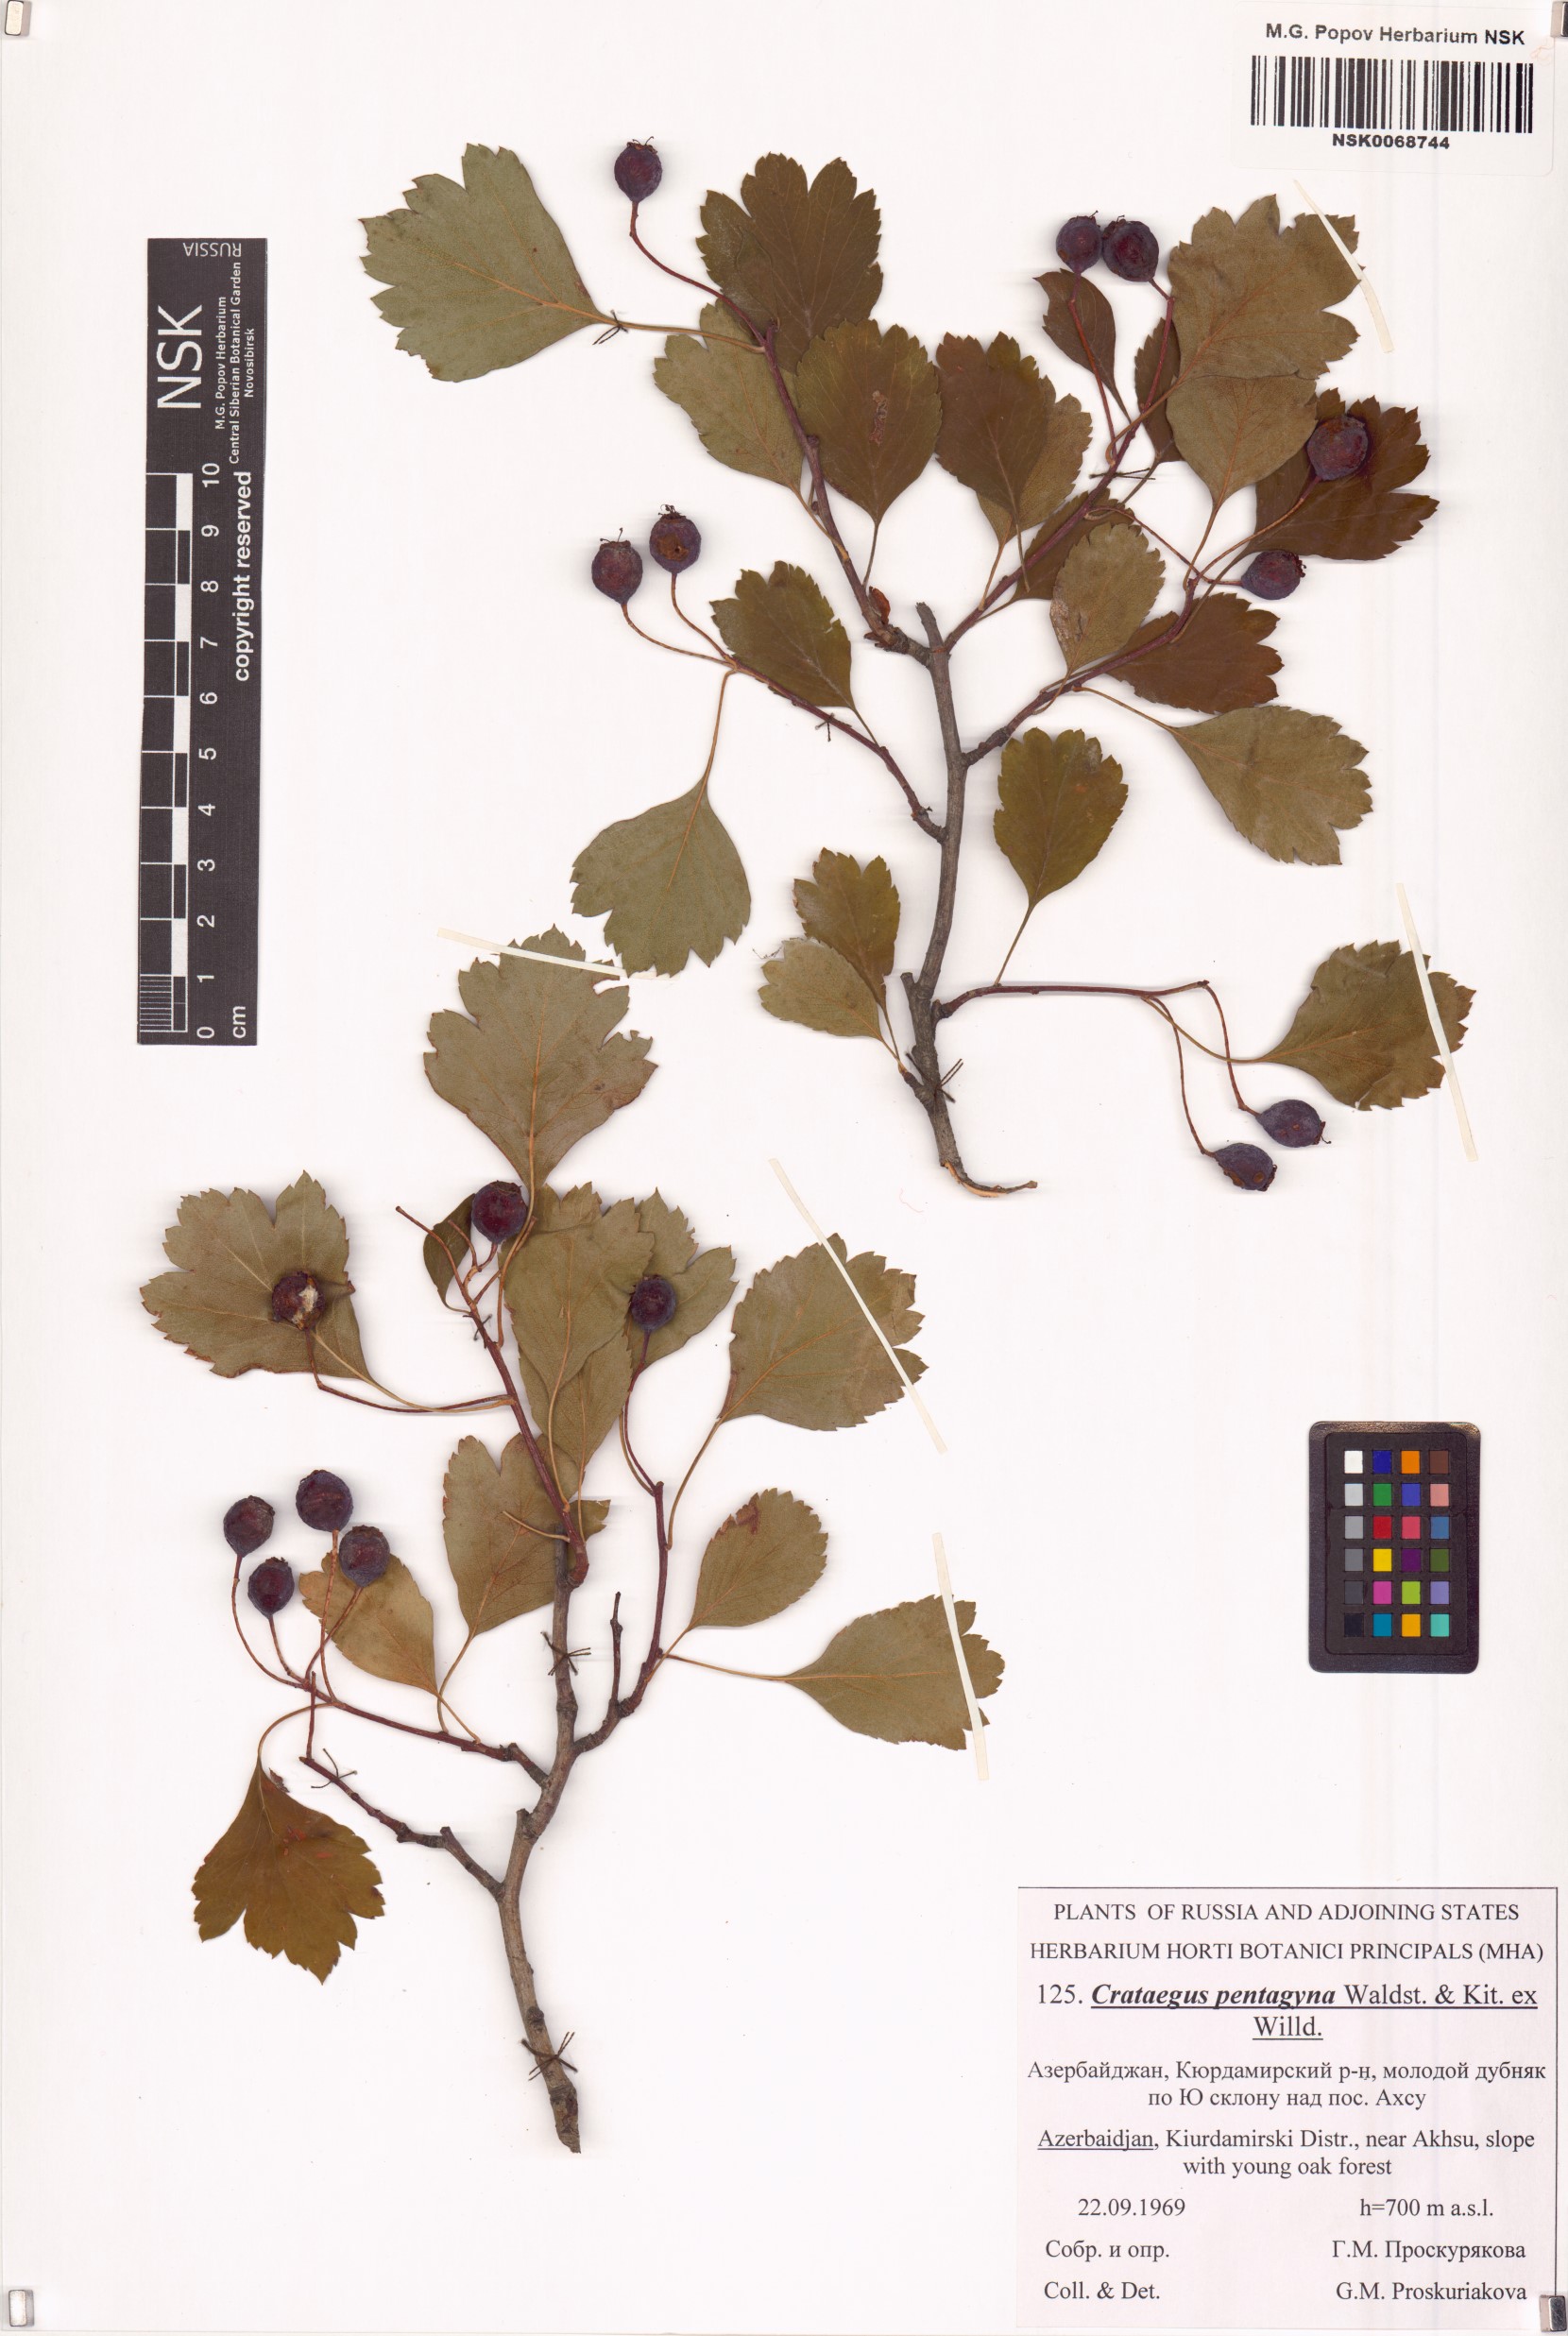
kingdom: Plantae
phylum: Tracheophyta
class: Magnoliopsida
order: Rosales
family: Rosaceae
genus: Crataegus
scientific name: Crataegus pentagyna
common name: Small-flowered black hawthorn
